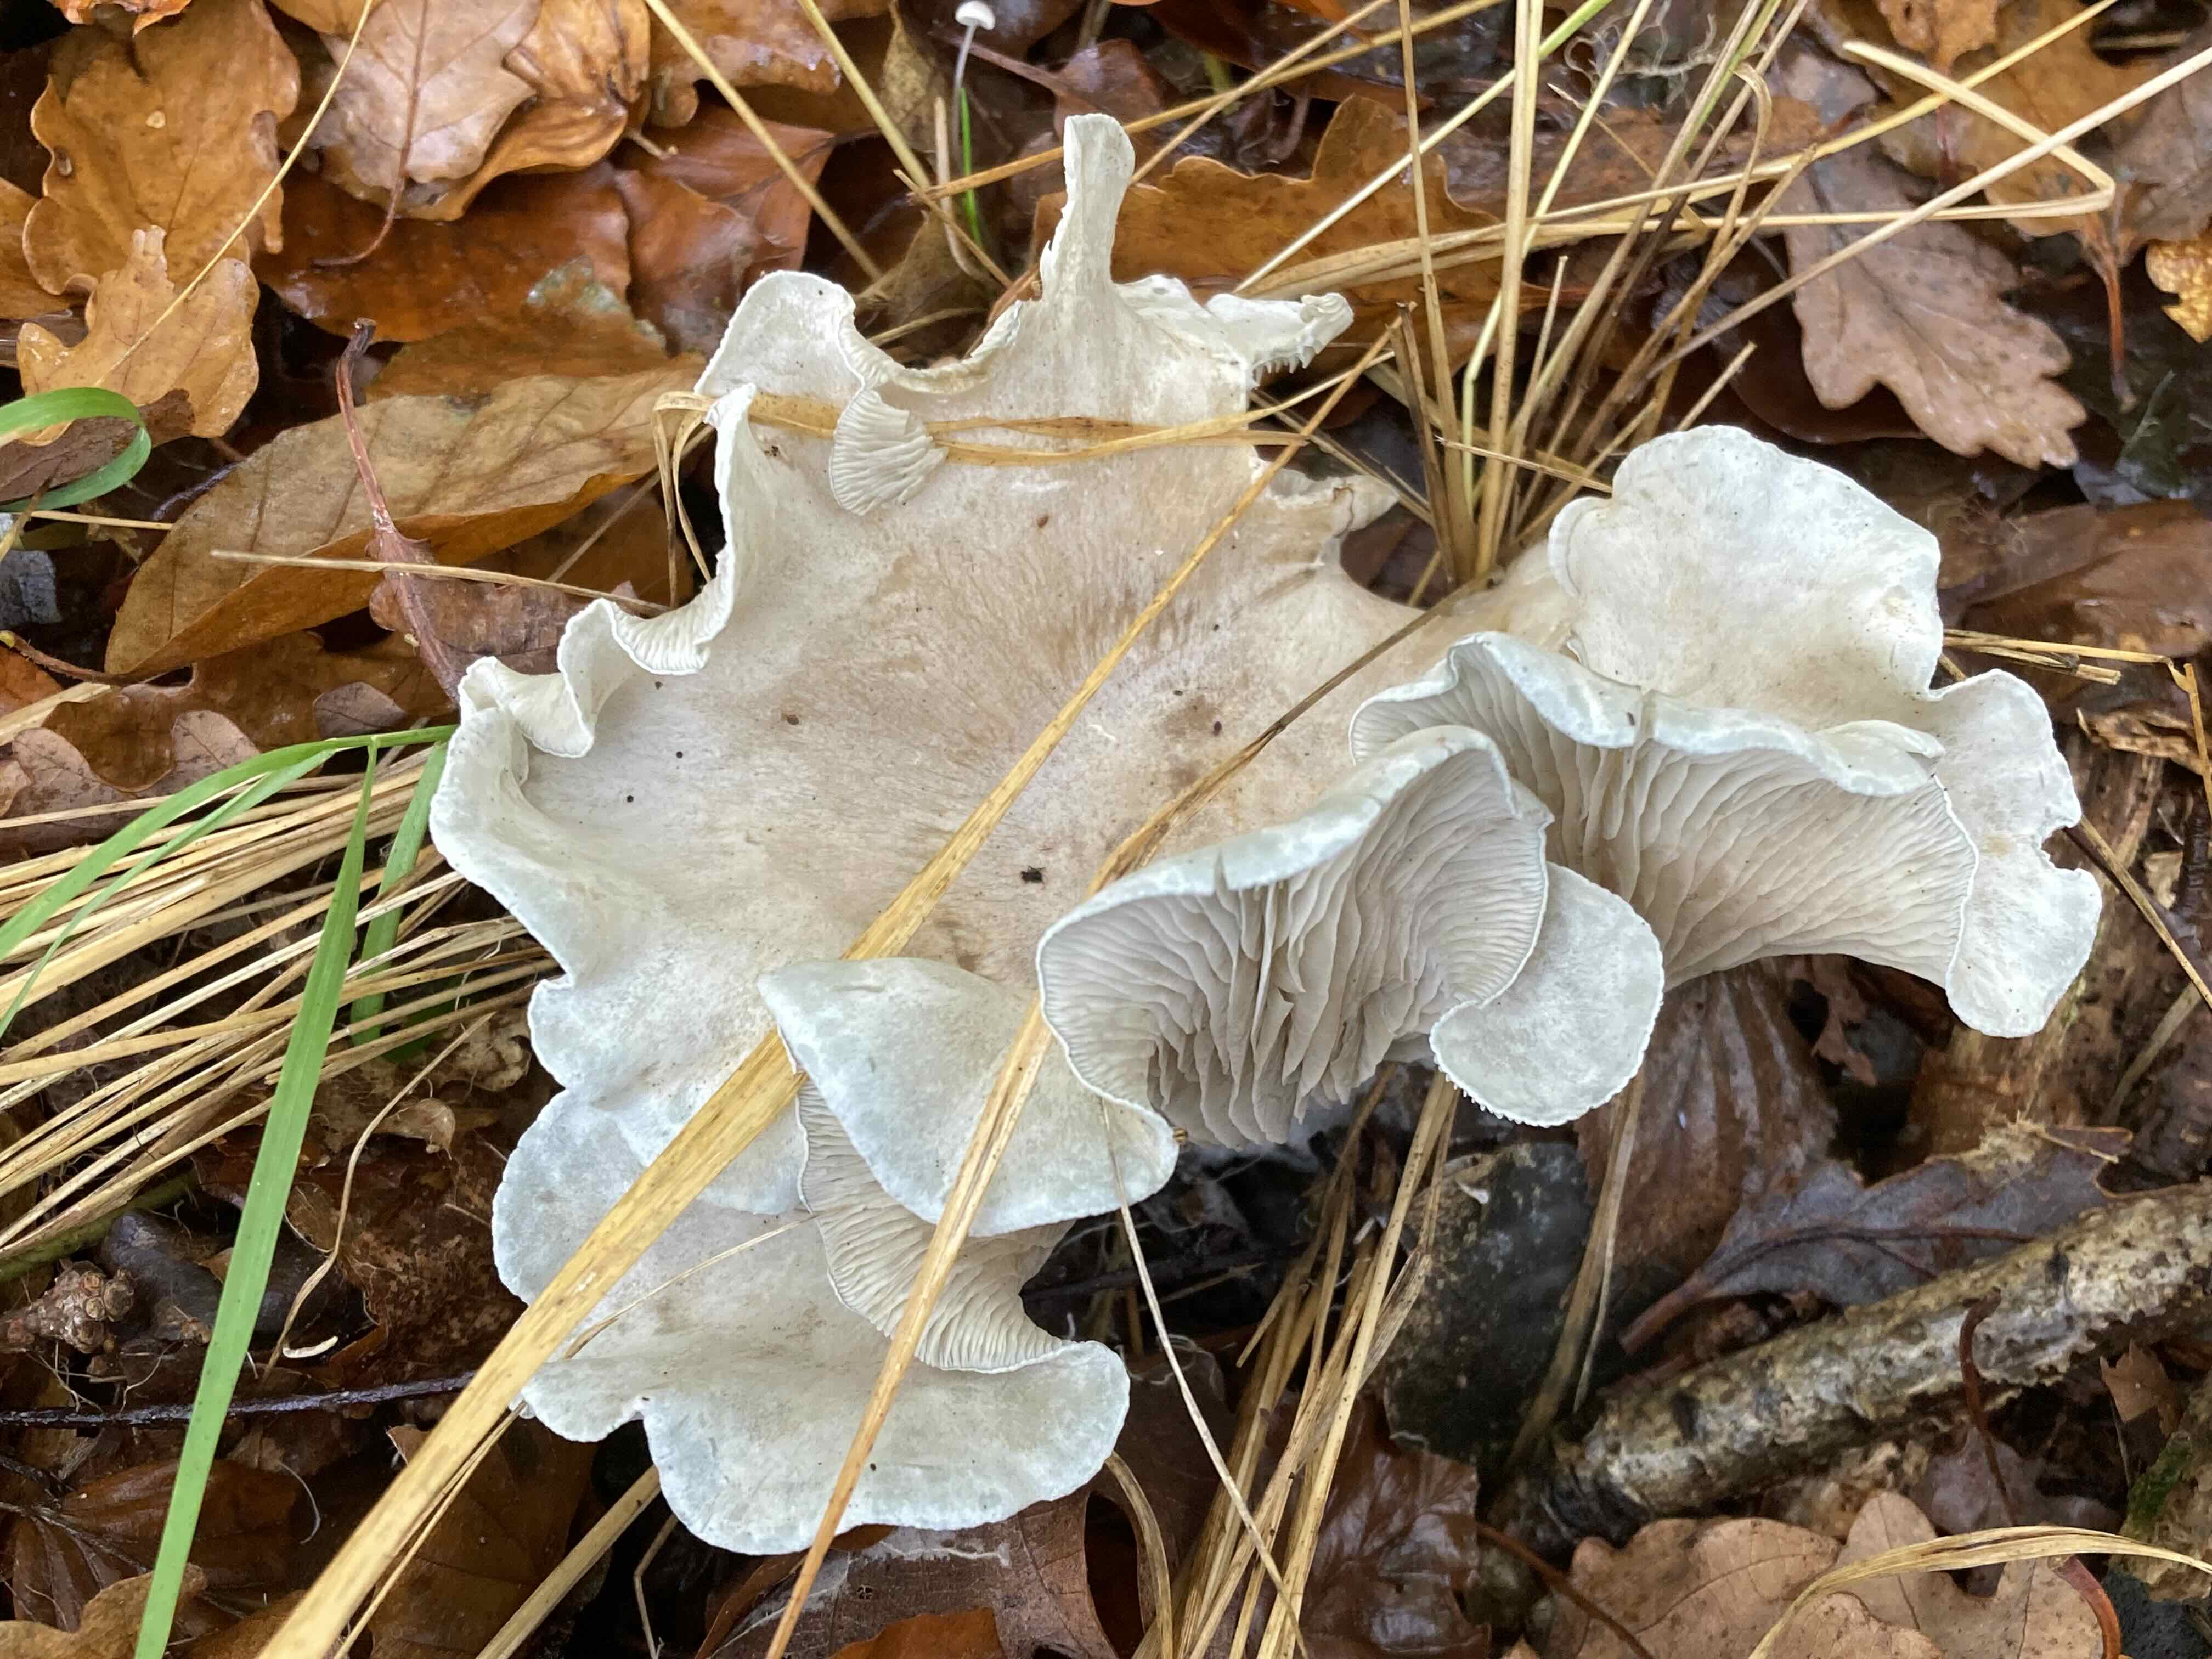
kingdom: Fungi
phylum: Basidiomycota
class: Agaricomycetes
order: Agaricales
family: Tricholomataceae
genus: Clitocybe
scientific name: Clitocybe odora
